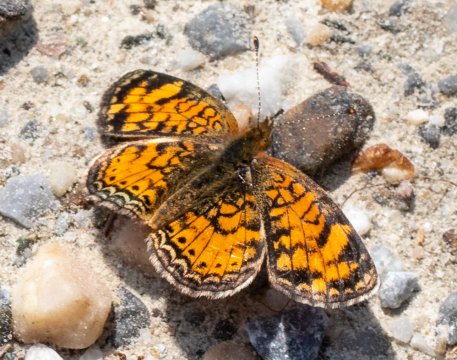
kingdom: Animalia
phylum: Arthropoda
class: Insecta
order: Lepidoptera
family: Nymphalidae
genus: Phyciodes
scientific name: Phyciodes
